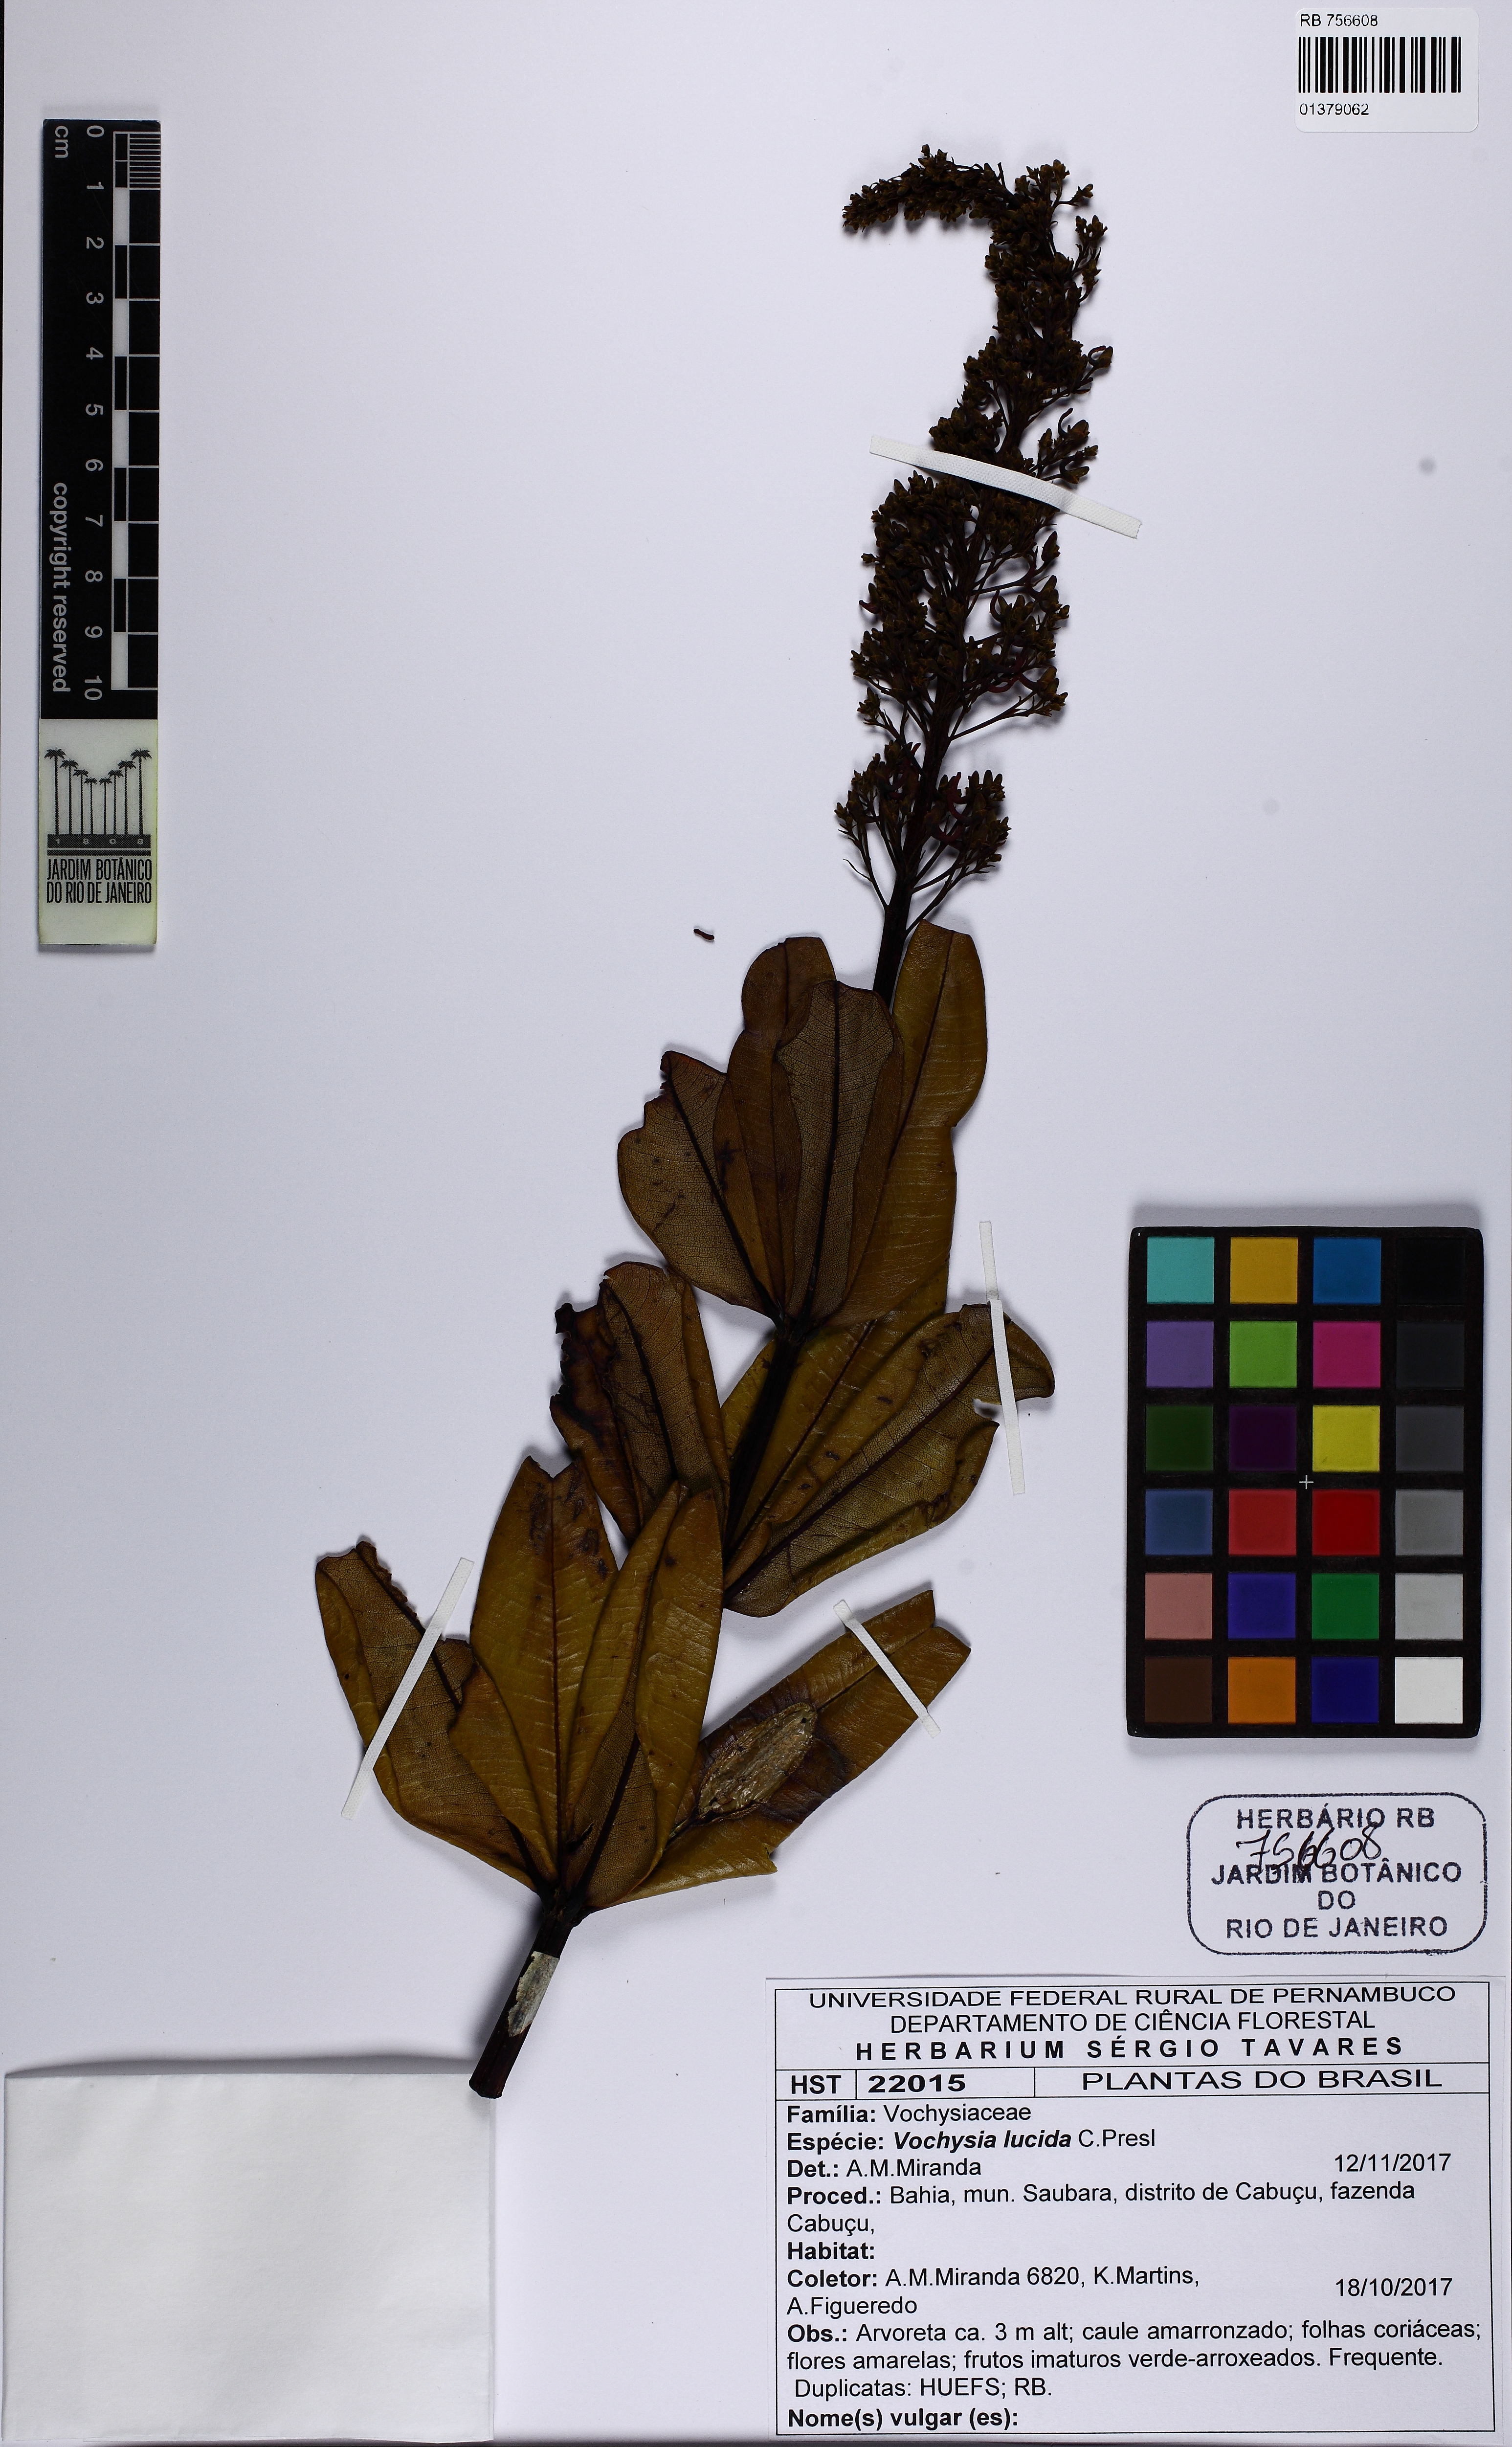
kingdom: Plantae
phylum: Tracheophyta
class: Magnoliopsida
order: Myrtales
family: Vochysiaceae
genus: Vochysia
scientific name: Vochysia lucida
